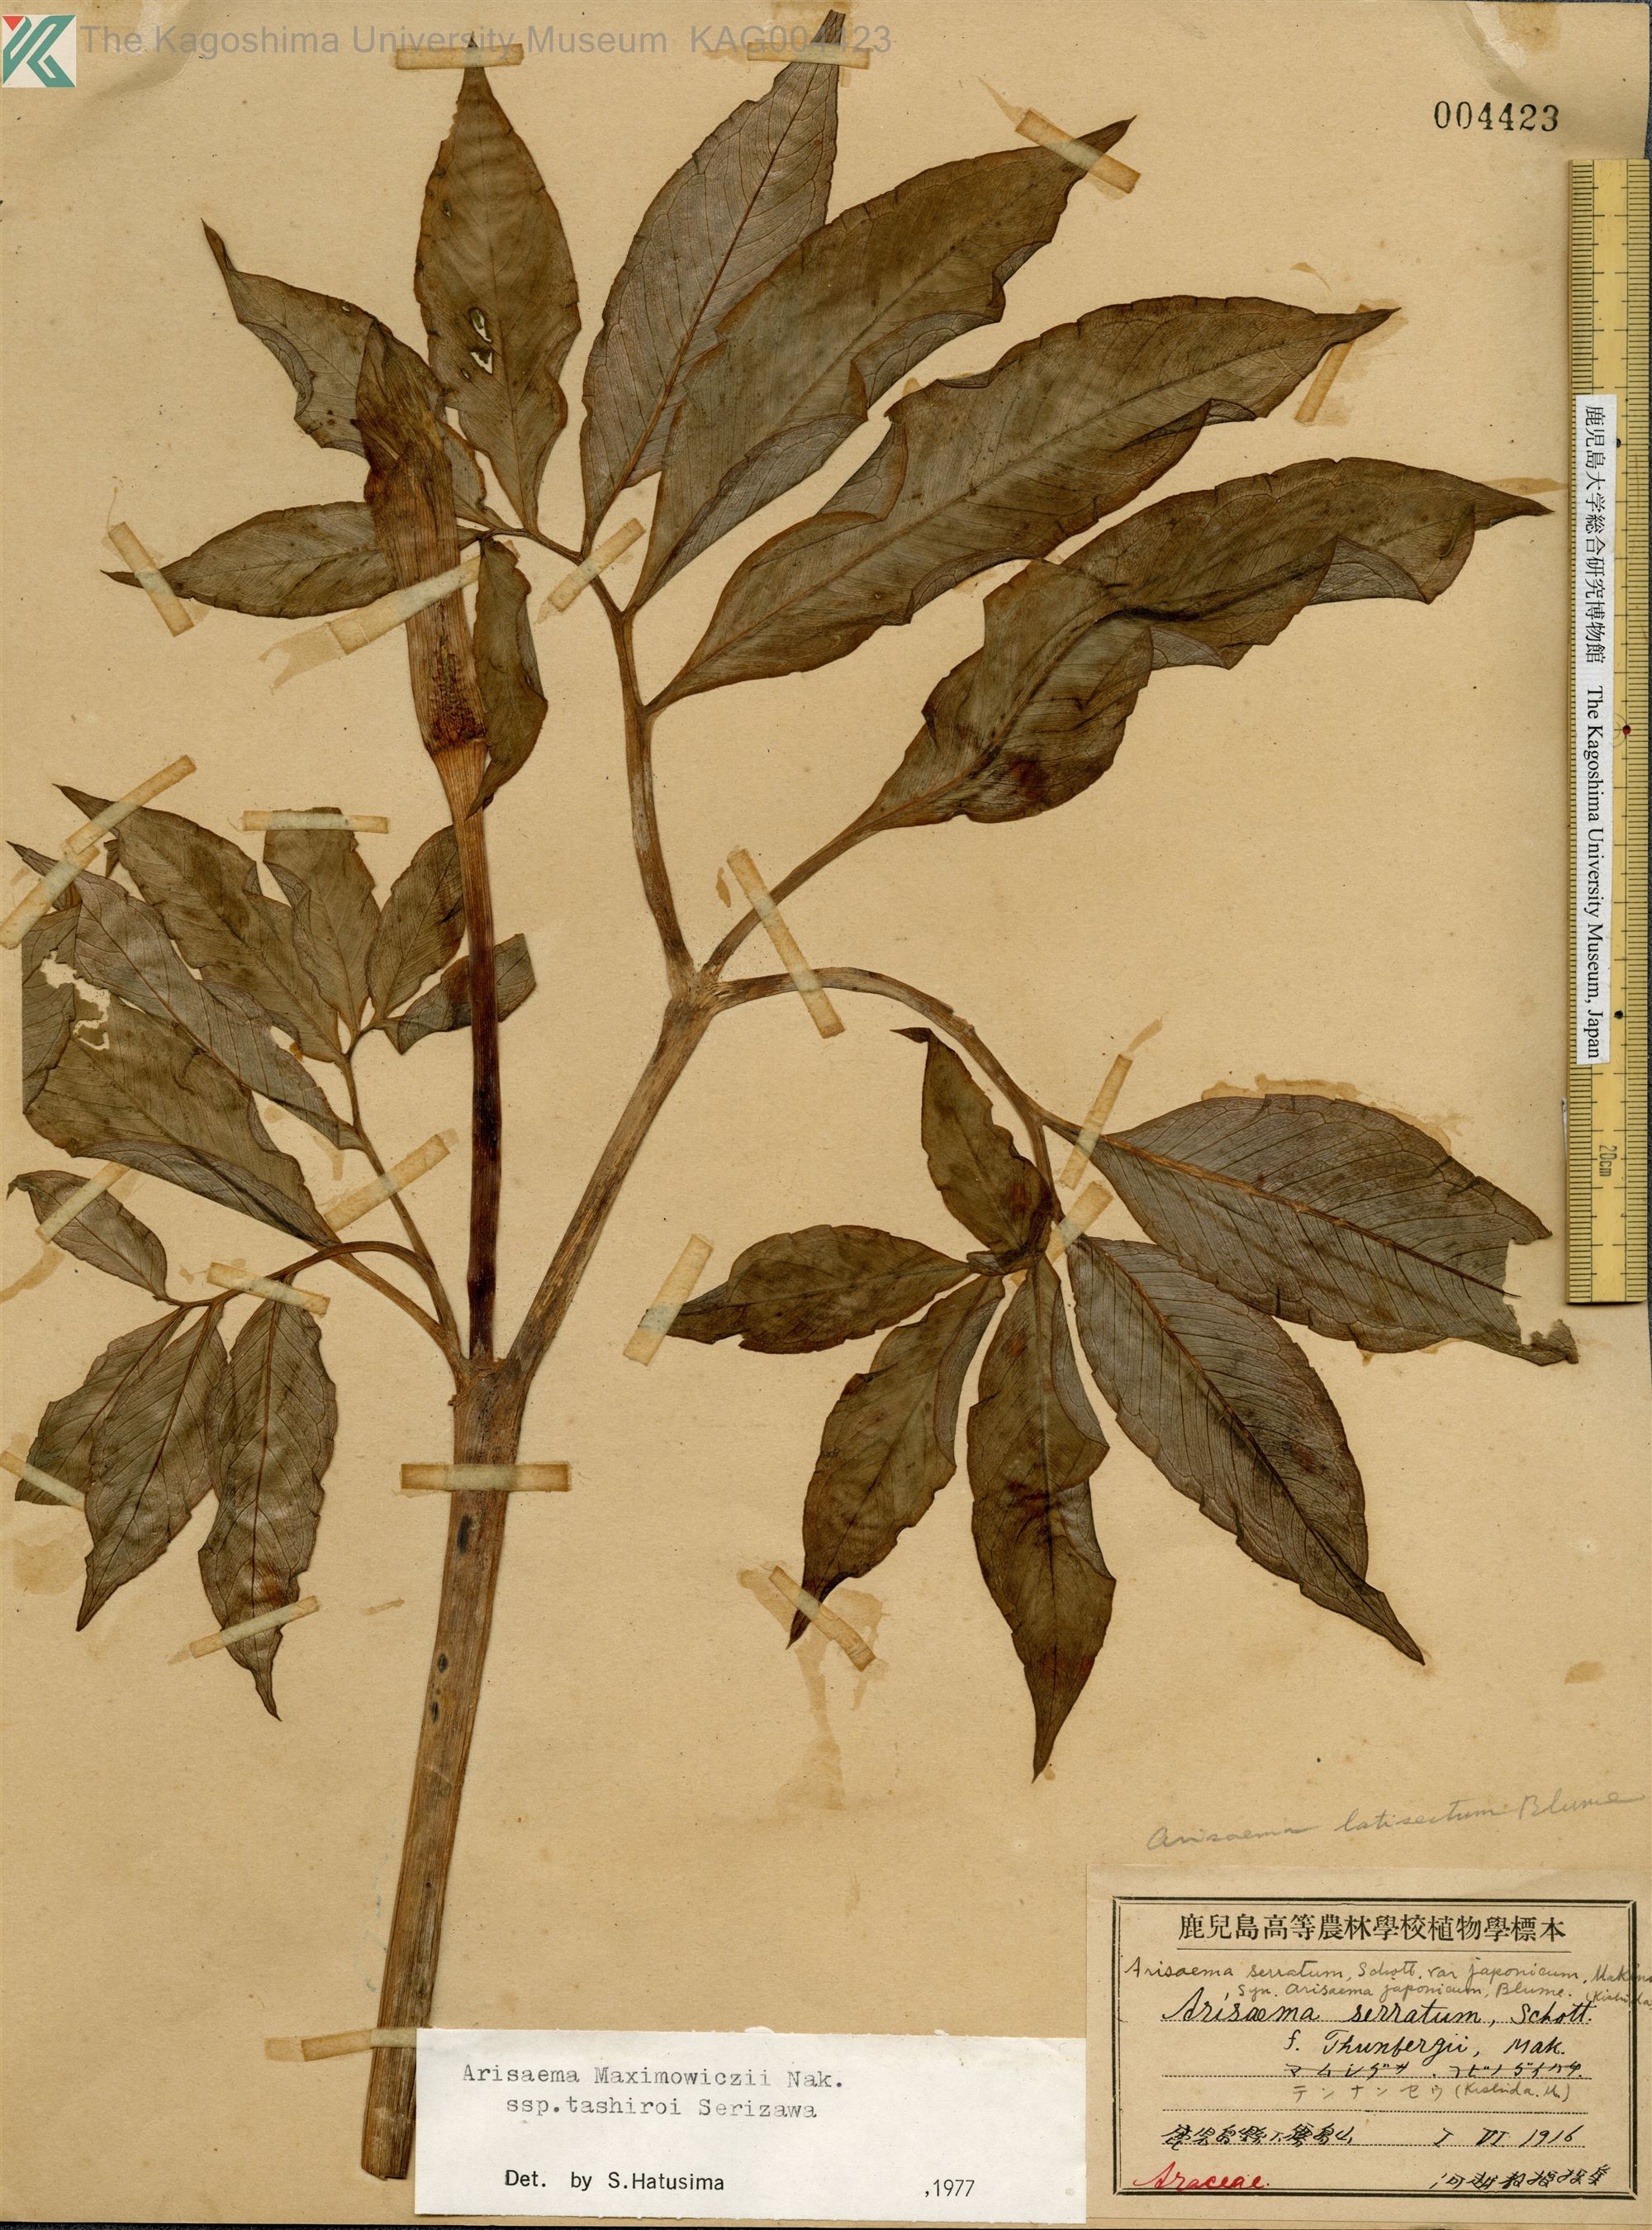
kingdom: Plantae
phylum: Tracheophyta
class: Liliopsida
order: Alismatales
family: Araceae
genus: Arisaema
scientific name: Arisaema tashiroi
